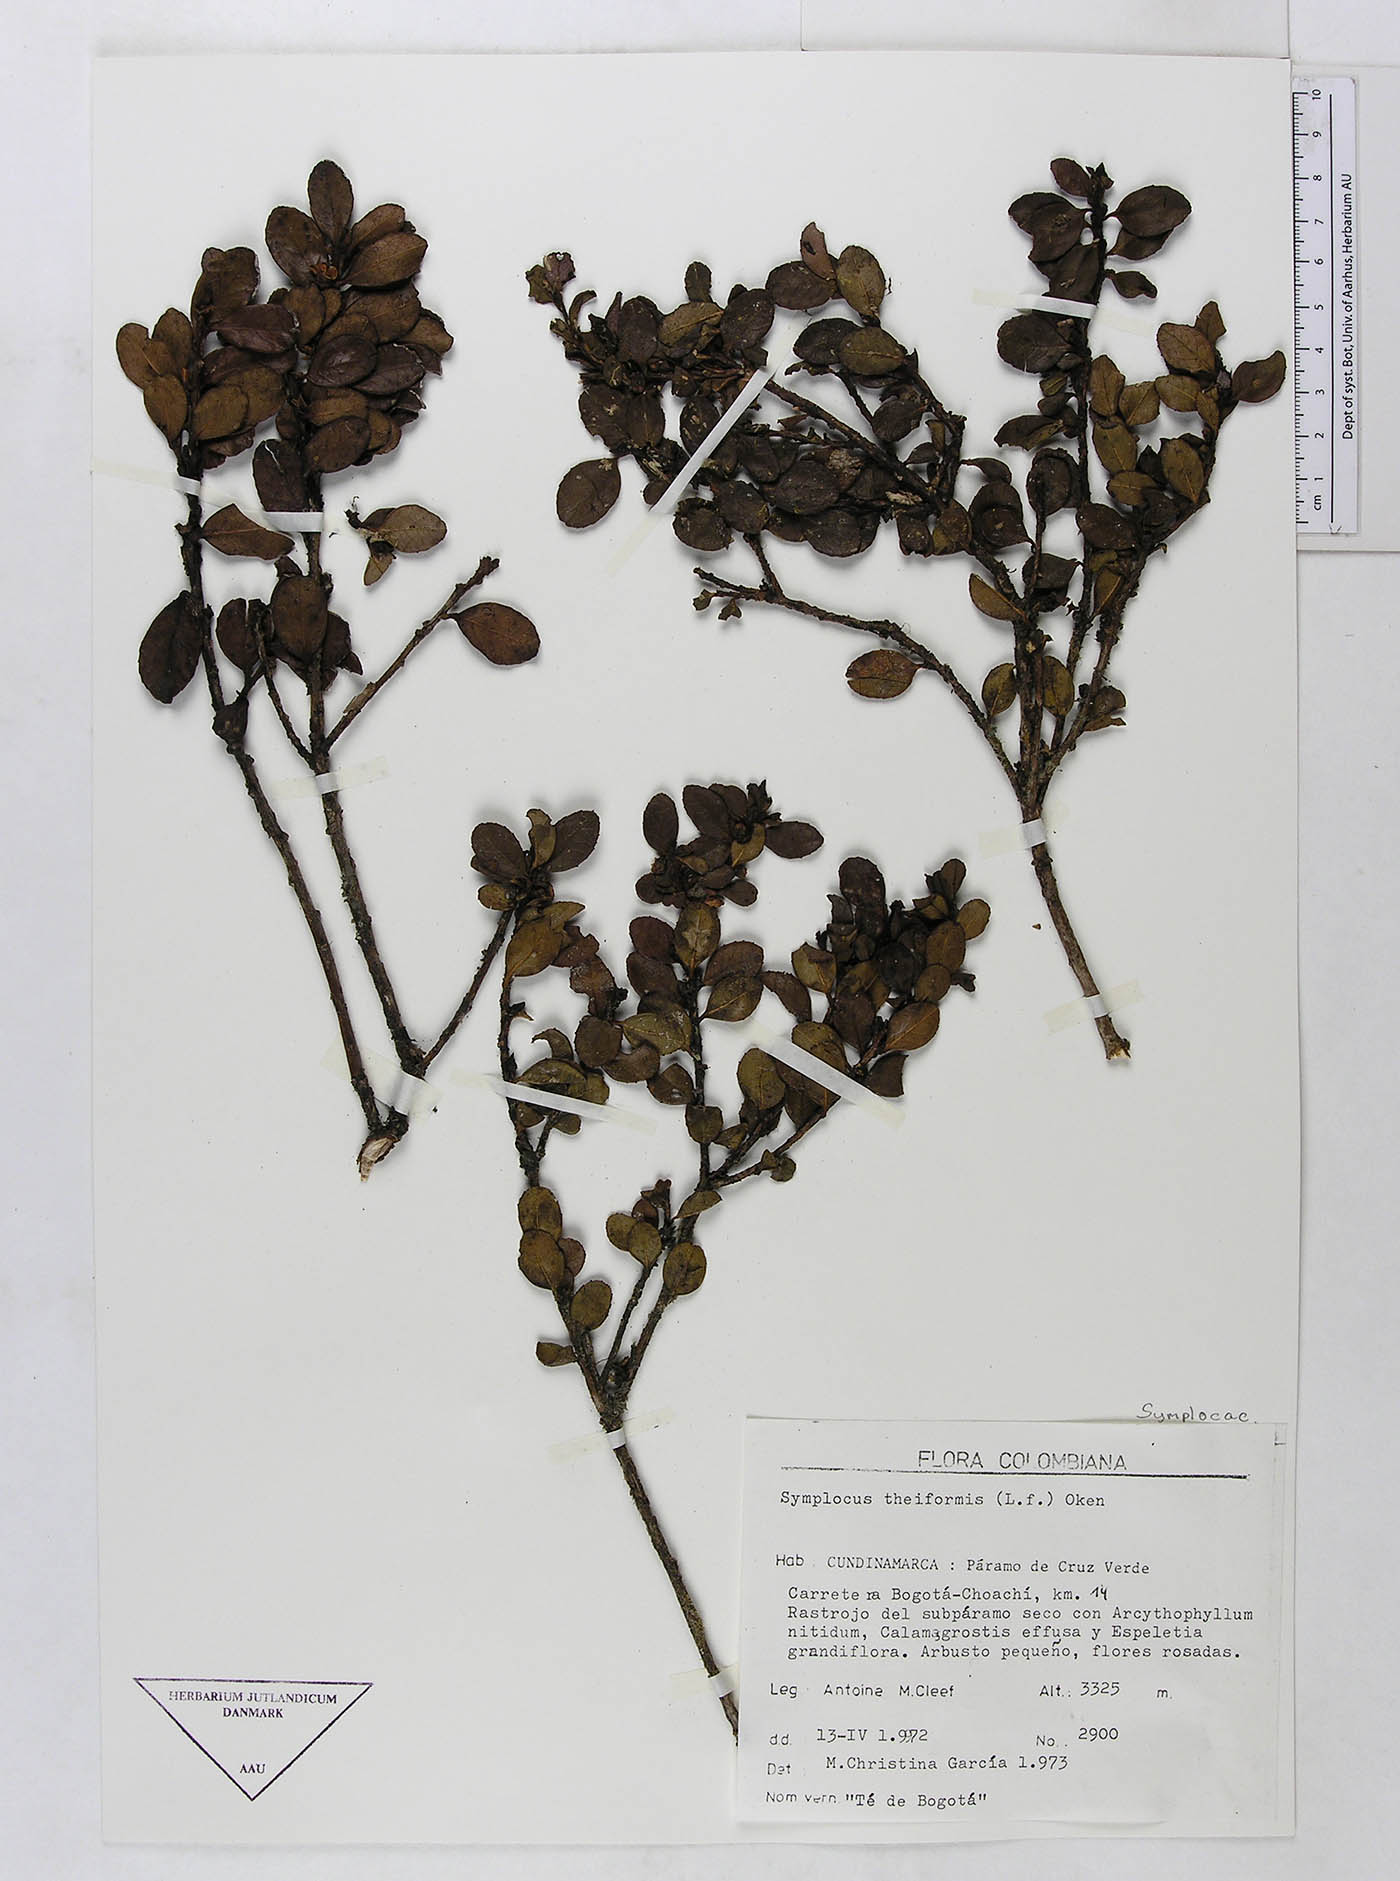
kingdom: Plantae
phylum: Tracheophyta
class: Magnoliopsida
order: Ericales
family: Symplocaceae
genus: Symplocos
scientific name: Symplocos theiformis
